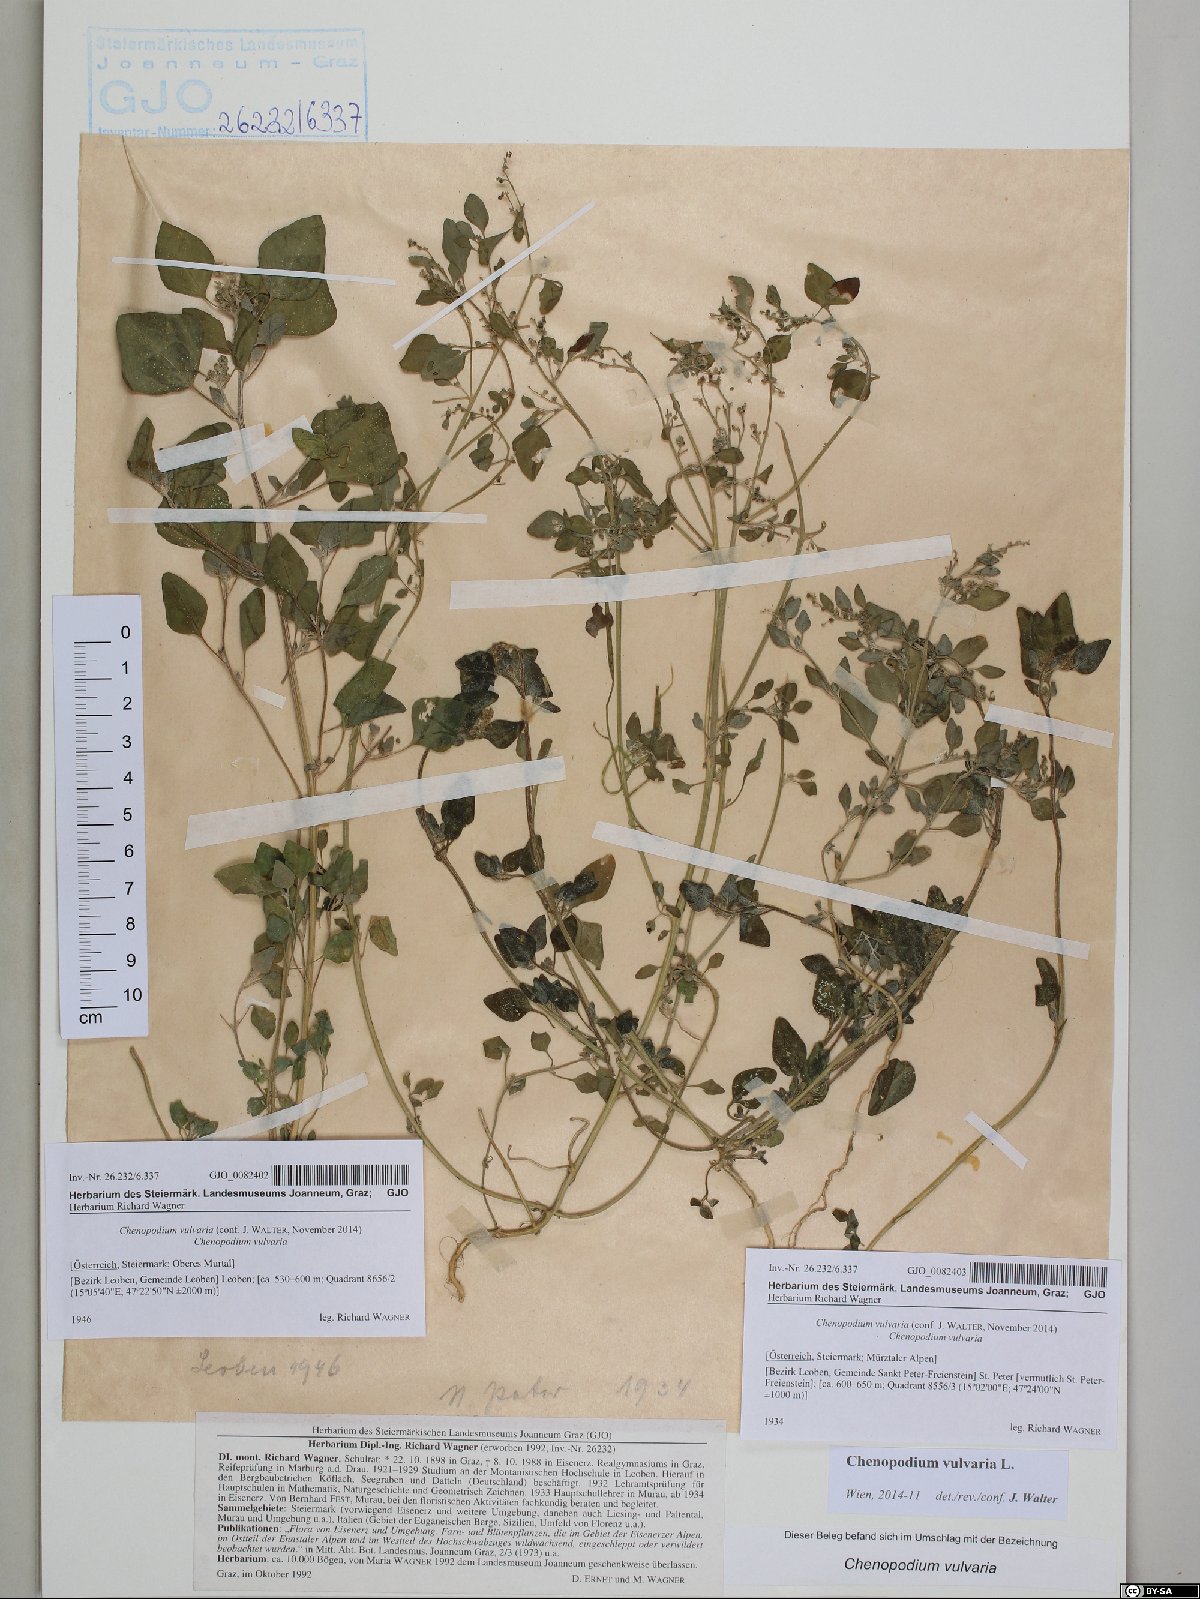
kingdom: Plantae
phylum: Tracheophyta
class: Magnoliopsida
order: Caryophyllales
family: Amaranthaceae
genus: Chenopodium
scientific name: Chenopodium vulvaria
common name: Stinking goosefoot
